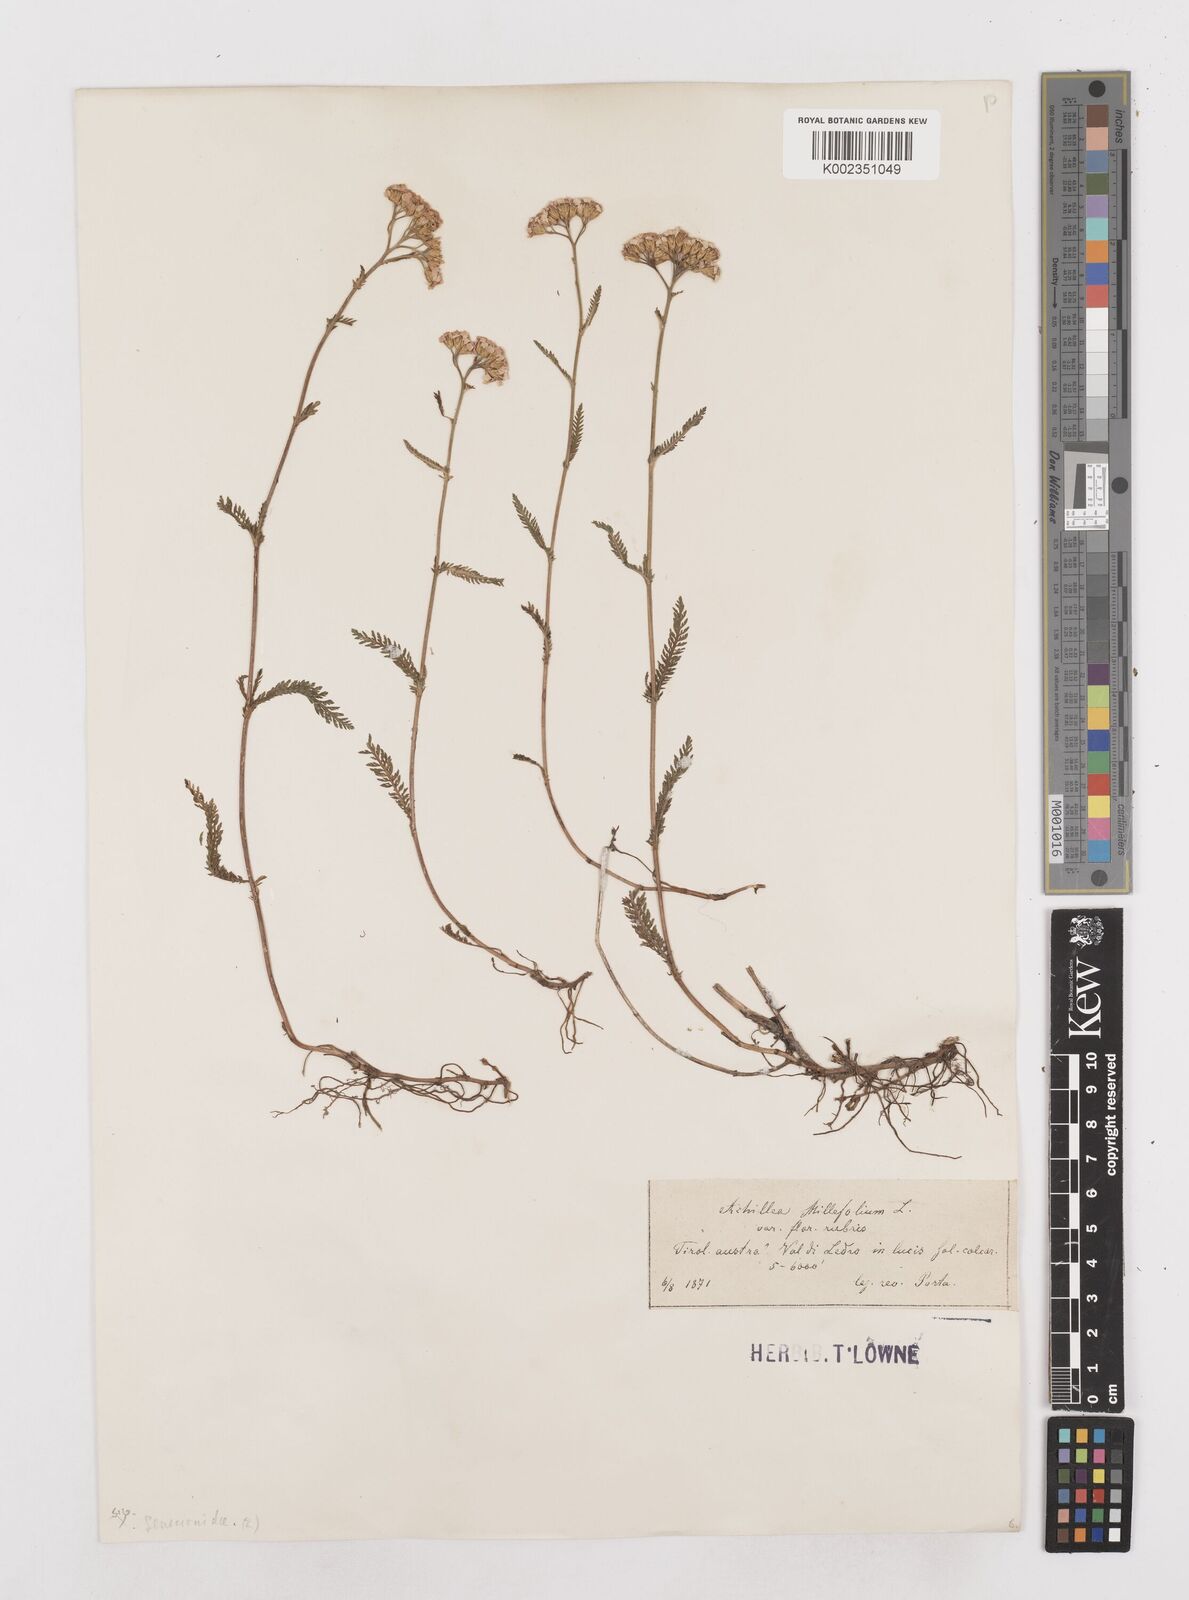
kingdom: Plantae
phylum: Tracheophyta
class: Magnoliopsida
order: Asterales
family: Asteraceae
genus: Achillea
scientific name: Achillea millefolium
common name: Yarrow
